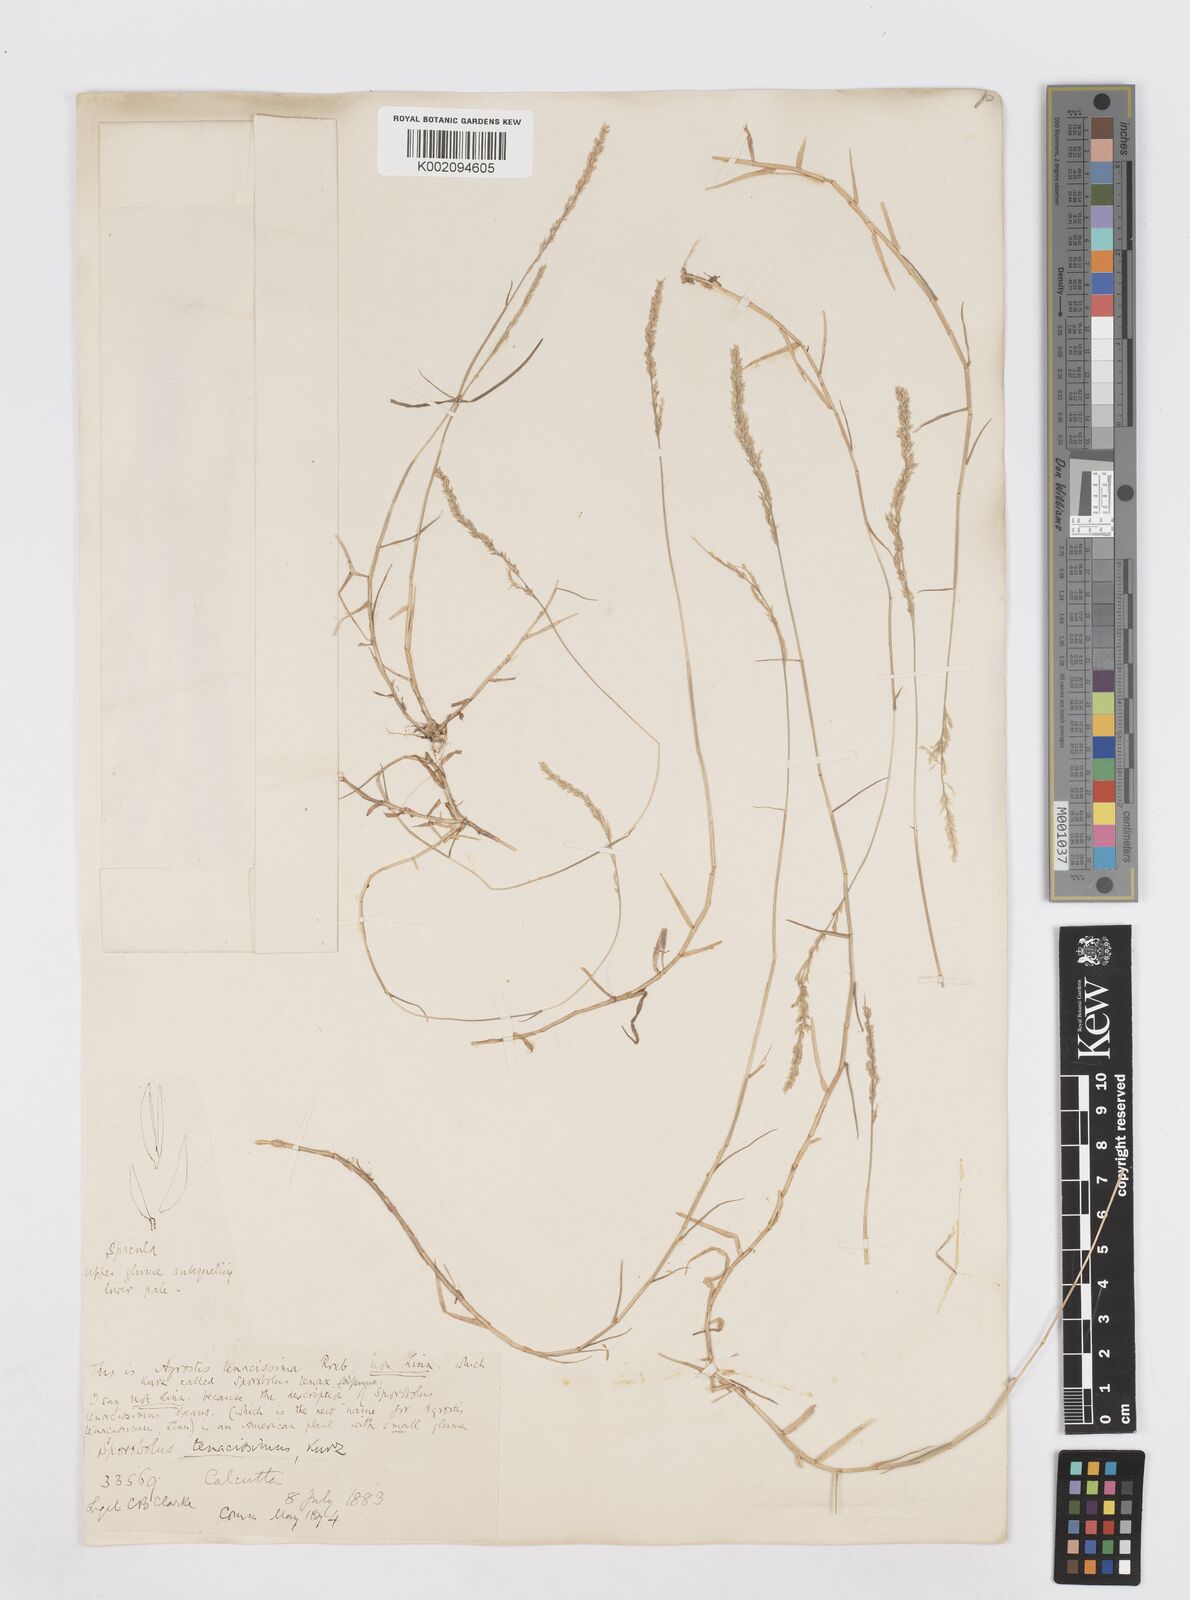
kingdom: Plantae
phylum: Tracheophyta
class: Liliopsida
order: Poales
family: Poaceae
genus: Sporobolus
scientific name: Sporobolus virginicus
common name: Beach dropseed
